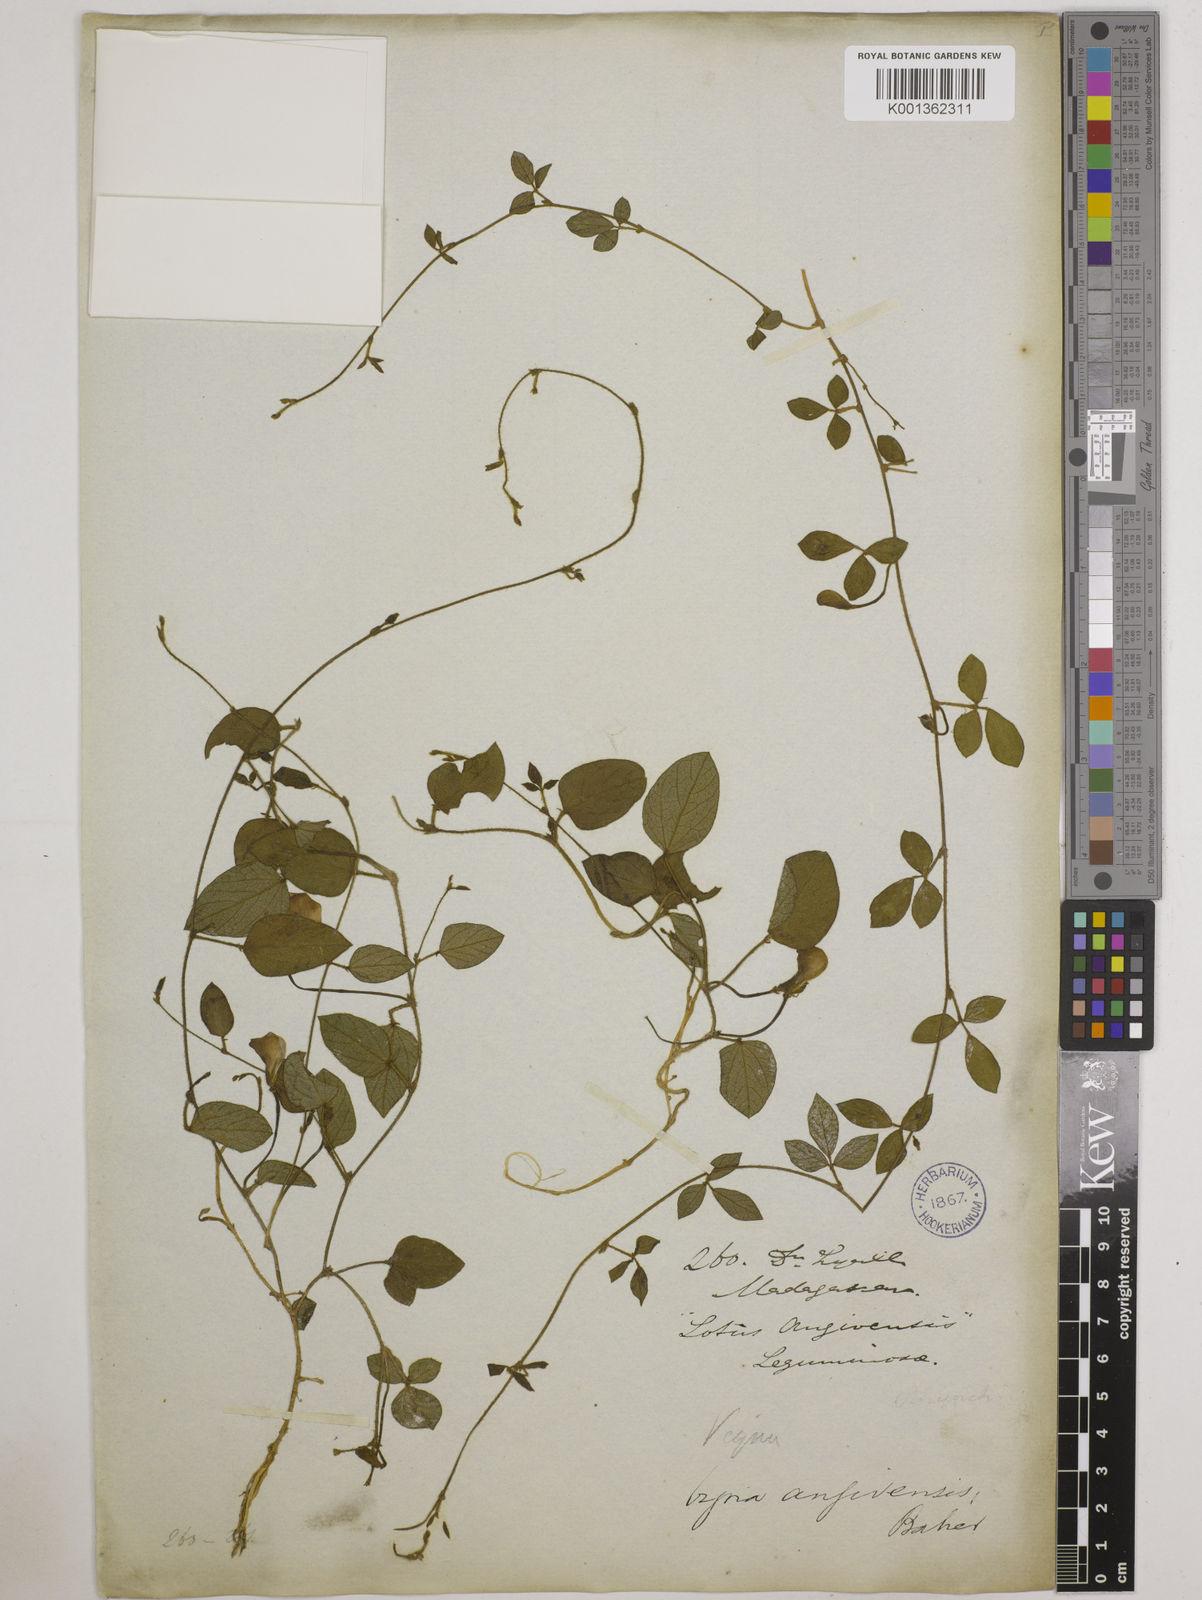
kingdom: Plantae
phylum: Tracheophyta
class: Magnoliopsida
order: Fabales
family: Fabaceae
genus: Vigna
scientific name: Vigna angivensis
